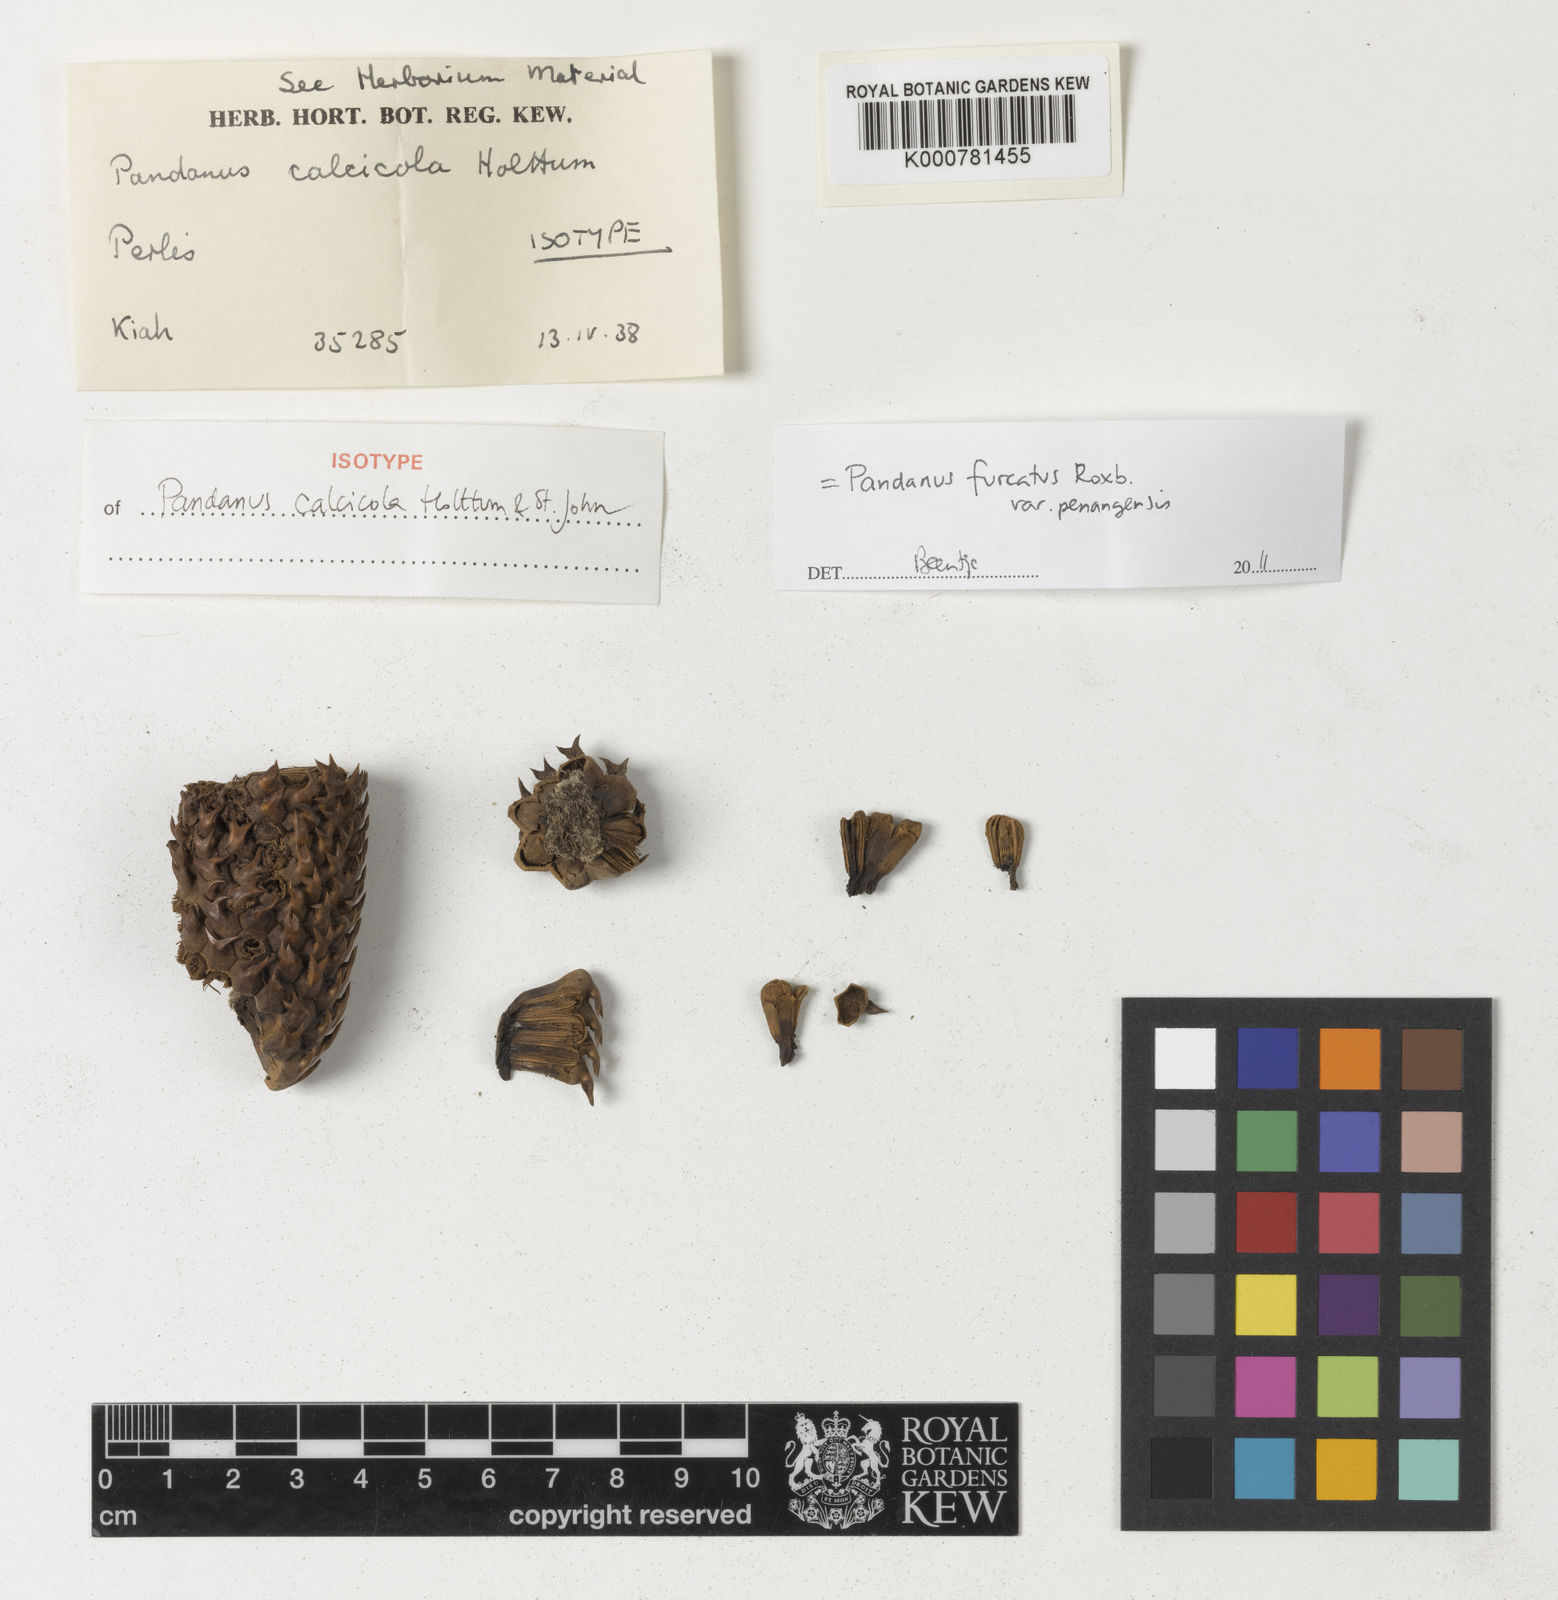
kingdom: Plantae
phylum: Tracheophyta
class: Liliopsida
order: Pandanales
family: Pandanaceae
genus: Pandanus
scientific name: Pandanus calcicola
